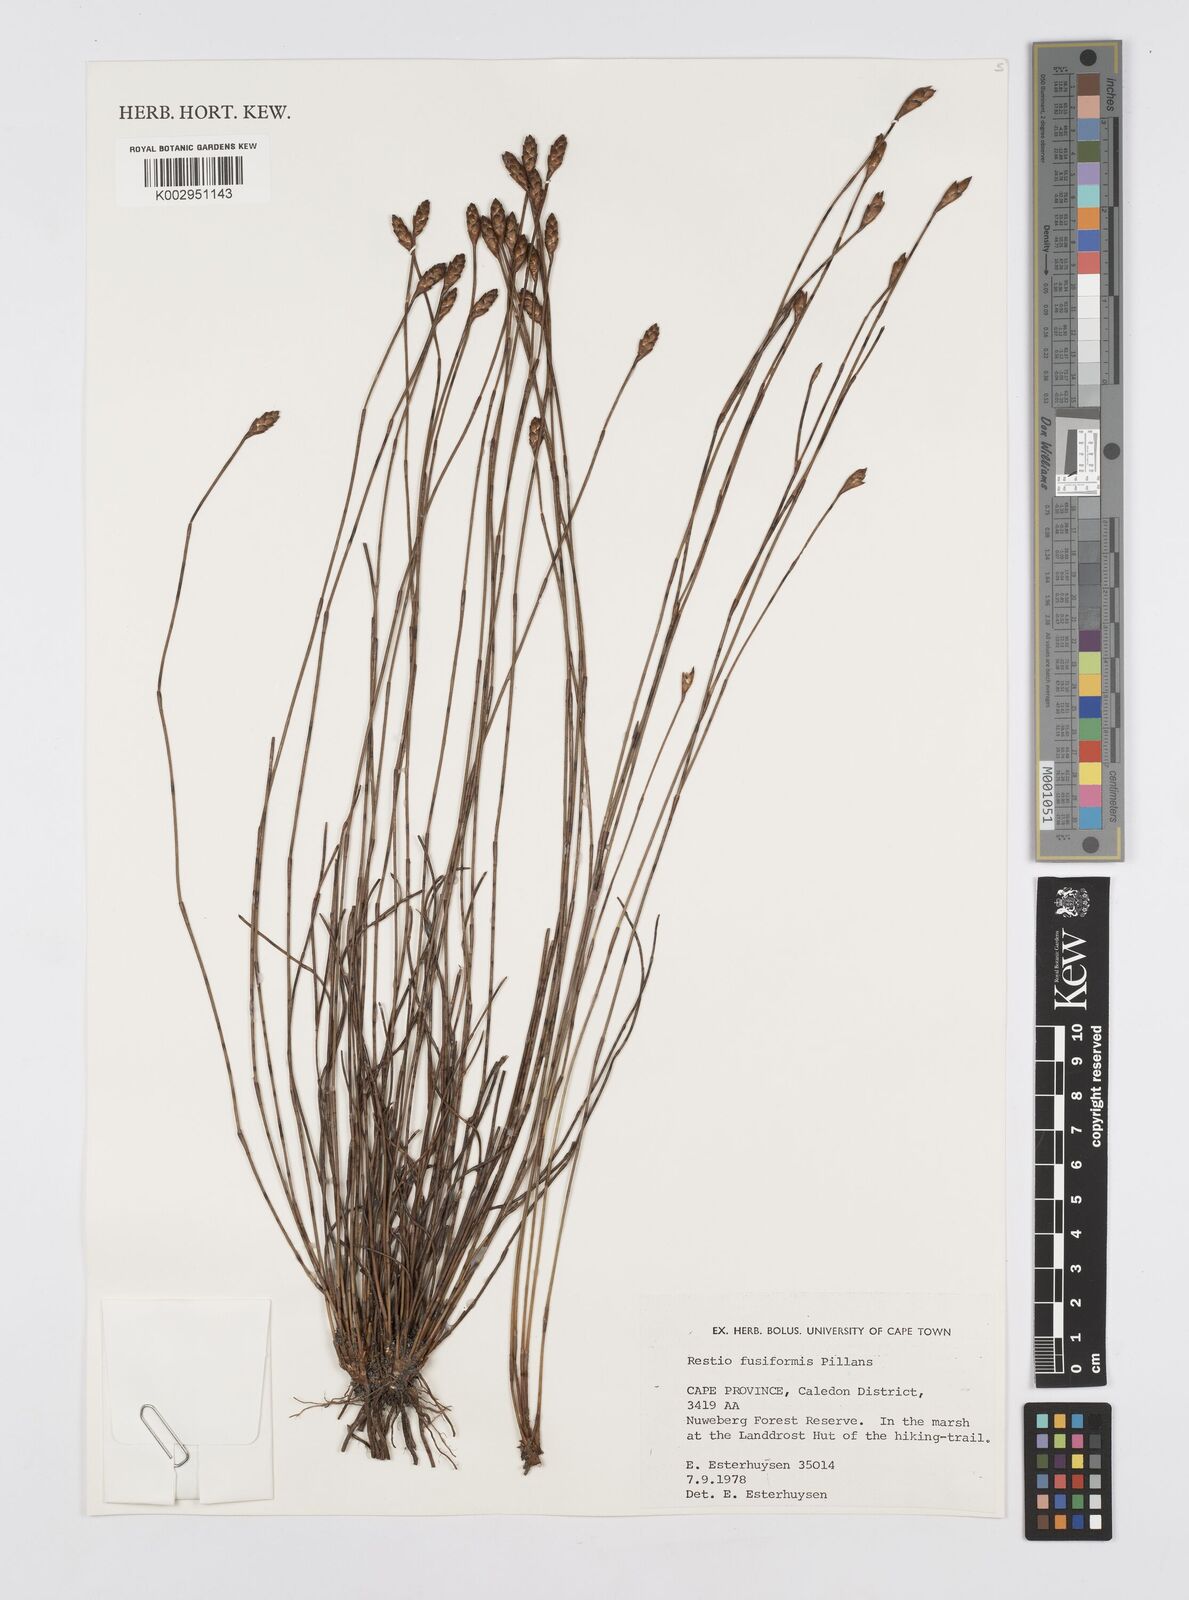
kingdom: Plantae
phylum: Tracheophyta
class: Liliopsida
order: Poales
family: Restionaceae
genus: Restio
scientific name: Restio fusiformis
